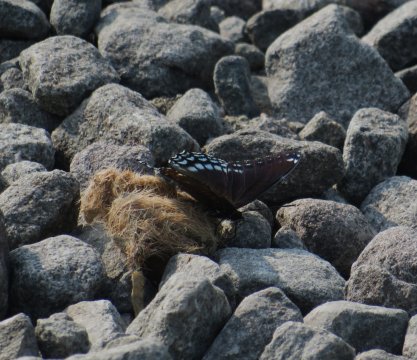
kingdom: Animalia
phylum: Arthropoda
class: Insecta
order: Lepidoptera
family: Nymphalidae
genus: Limenitis
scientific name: Limenitis arthemis
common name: Red-spotted Admiral
